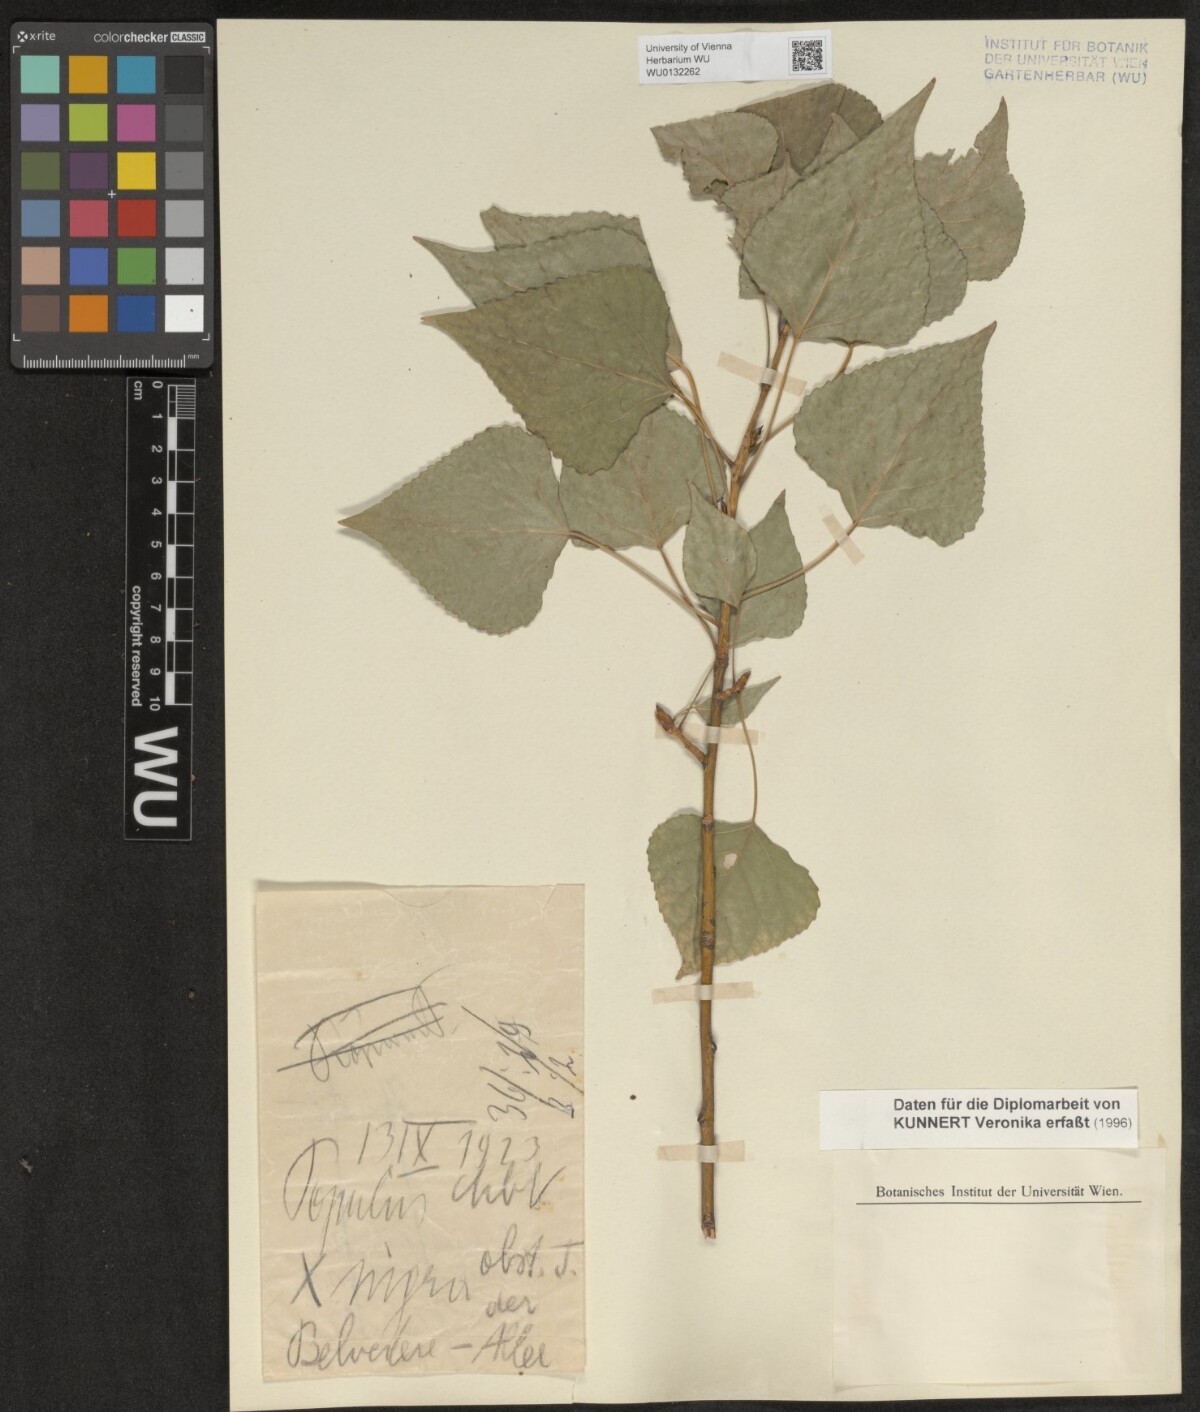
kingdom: Plantae
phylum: Tracheophyta
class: Magnoliopsida
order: Malpighiales
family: Salicaceae
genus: Populus
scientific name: Populus nigra
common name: Black poplar
